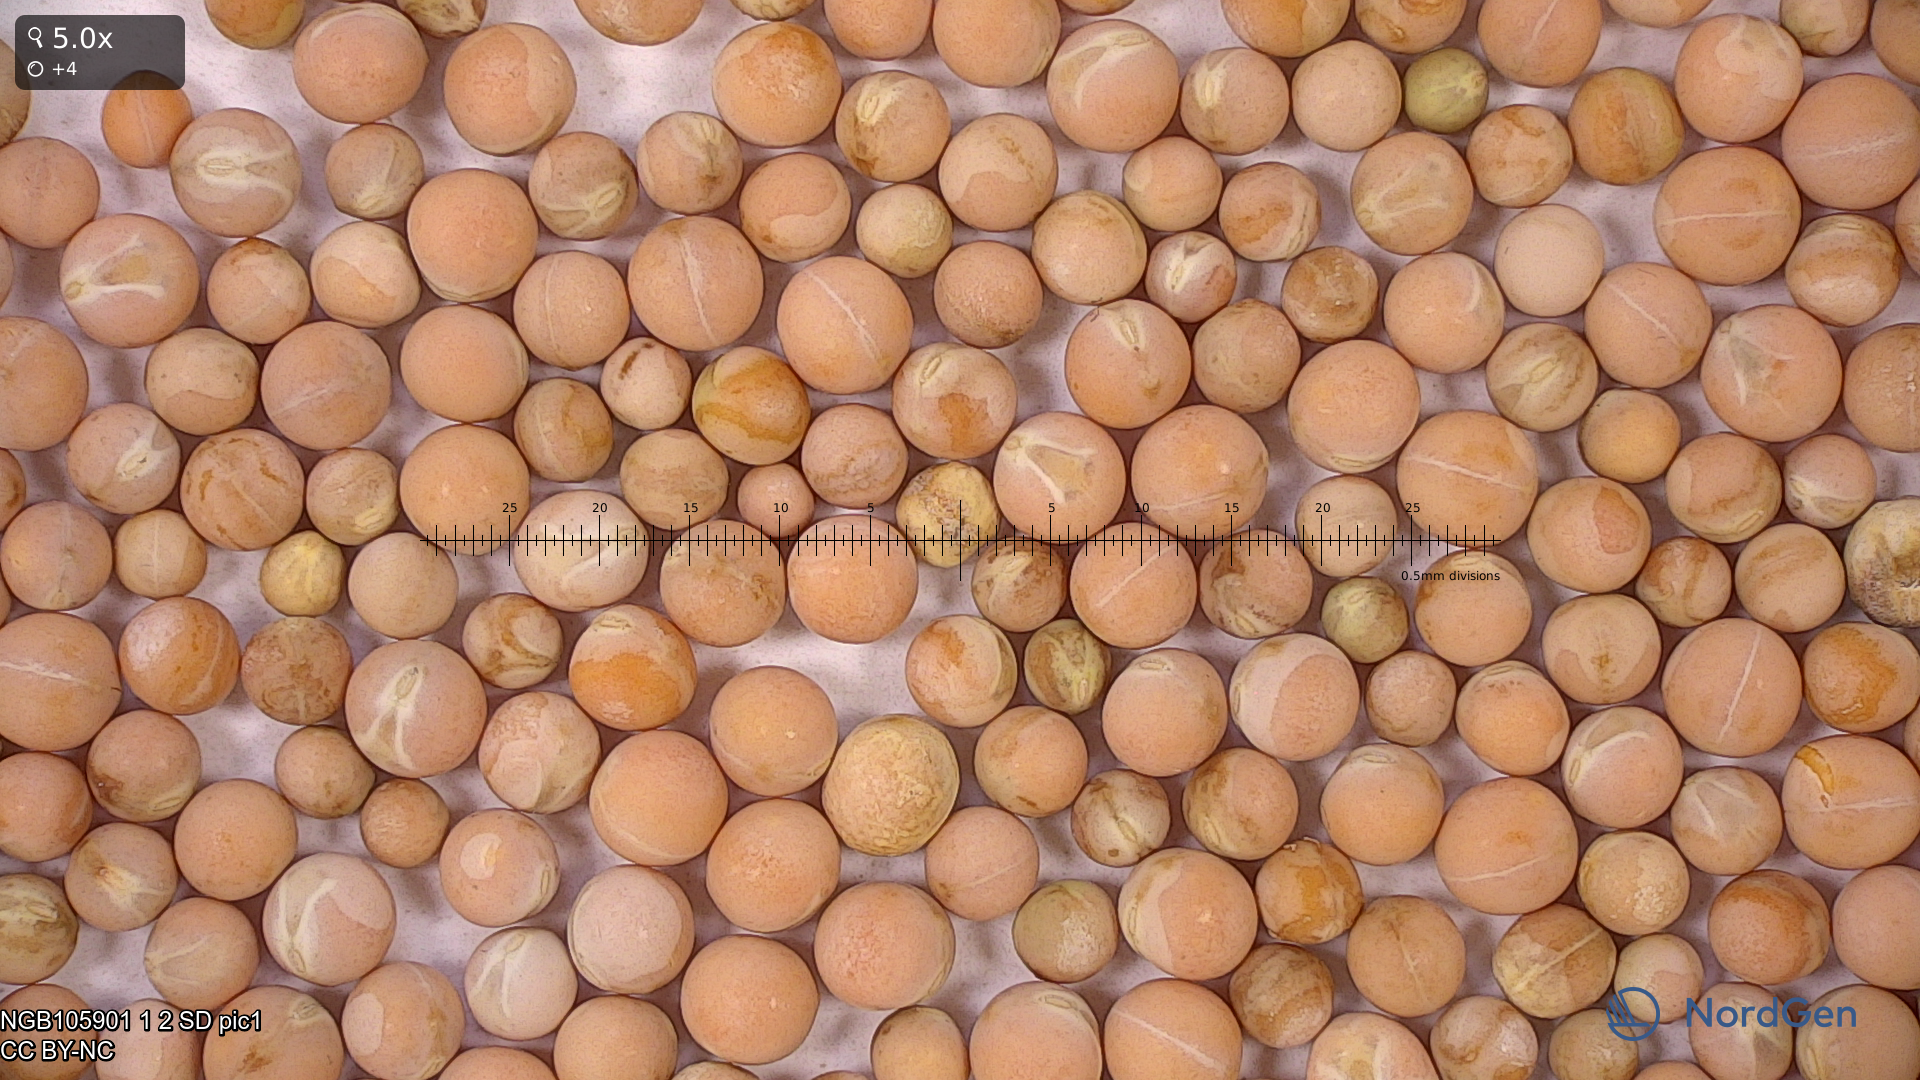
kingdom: Plantae
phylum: Tracheophyta
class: Magnoliopsida
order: Fabales
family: Fabaceae
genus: Lathyrus
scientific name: Lathyrus oleraceus
